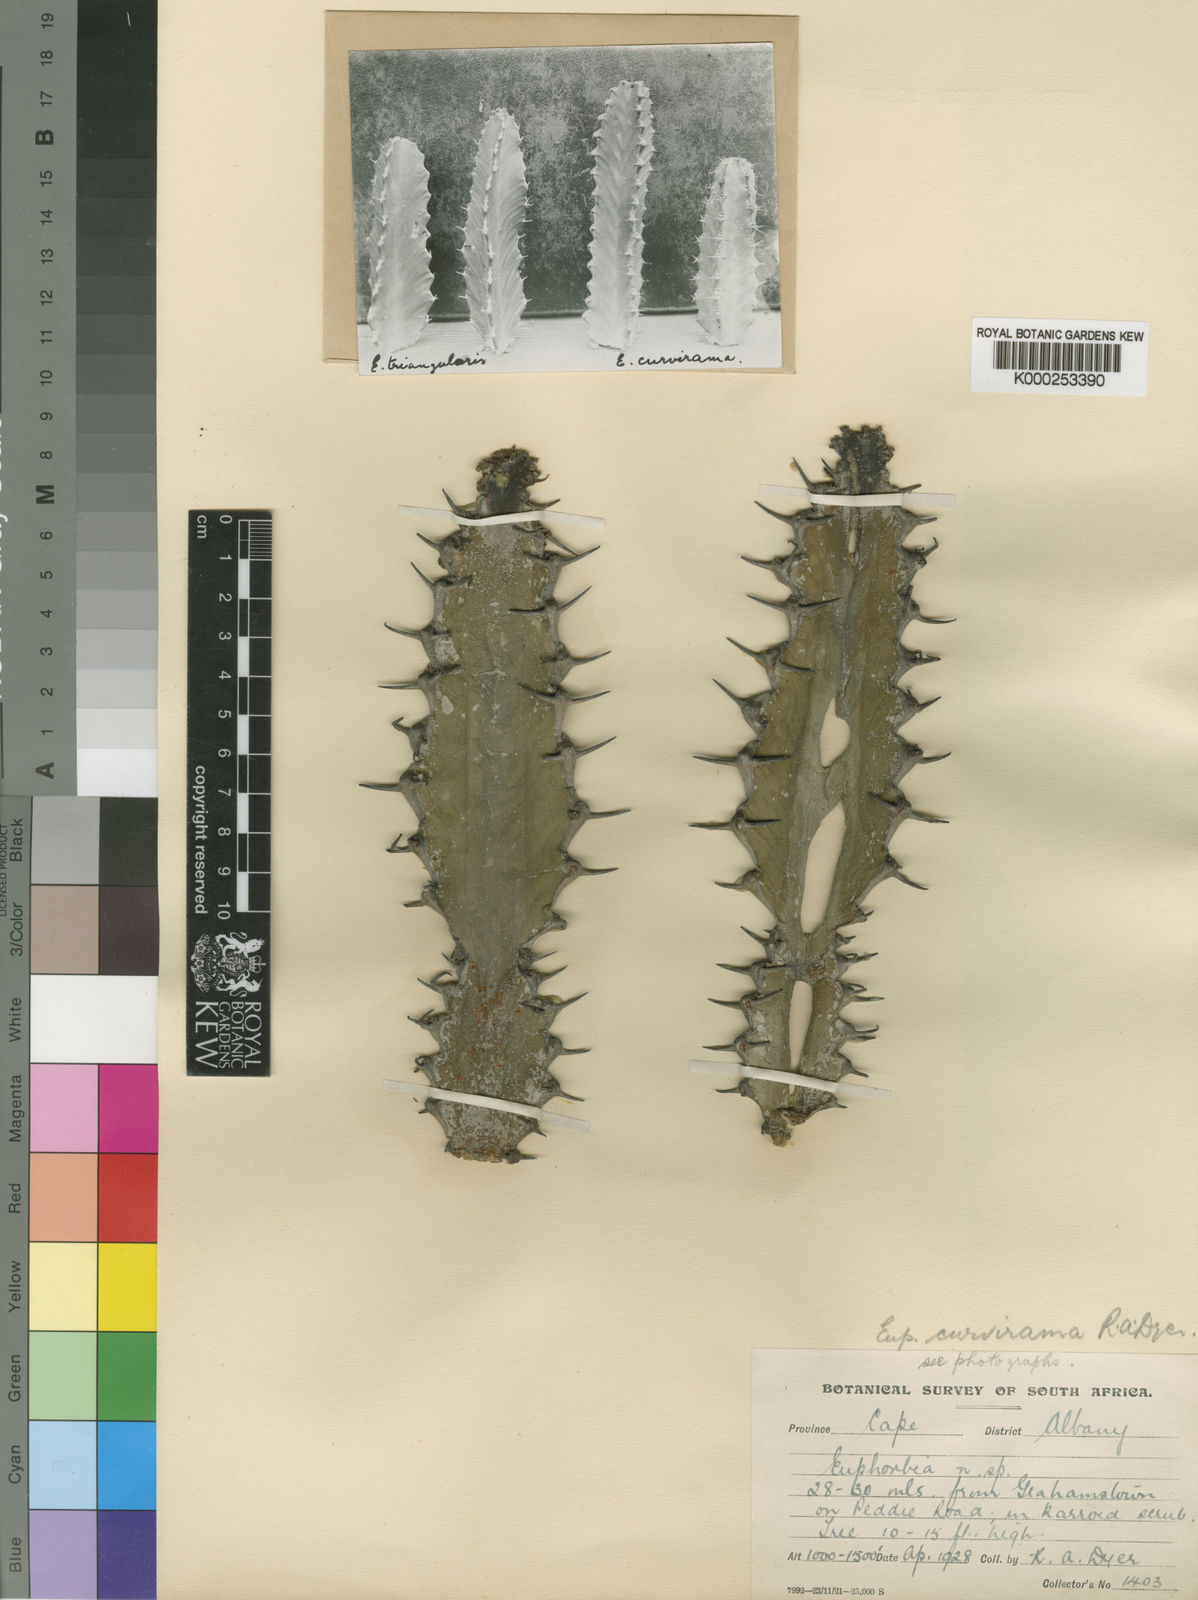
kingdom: Plantae
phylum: Tracheophyta
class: Magnoliopsida
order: Malpighiales
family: Euphorbiaceae
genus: Euphorbia
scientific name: Euphorbia curvirama
